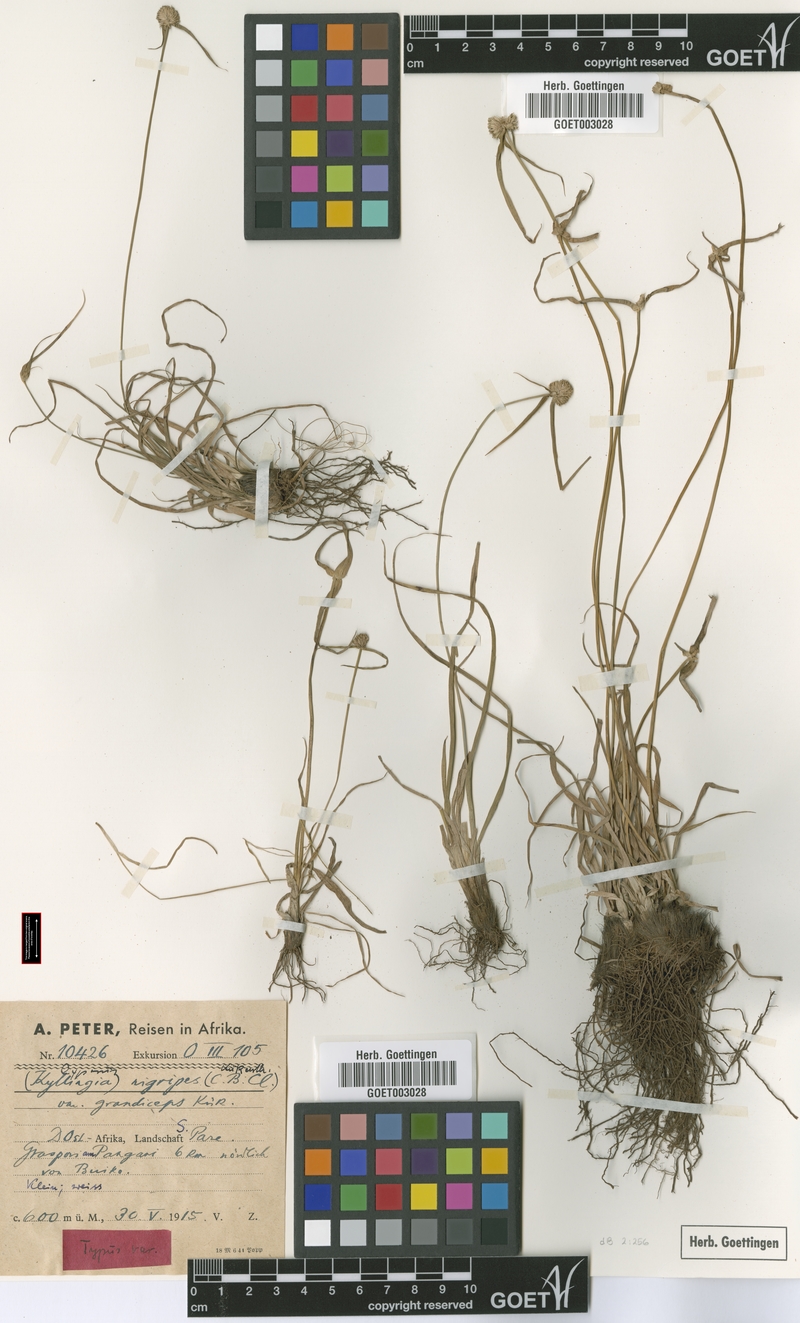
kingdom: Plantae
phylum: Tracheophyta
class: Liliopsida
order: Poales
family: Cyperaceae
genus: Cyperus
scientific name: Cyperus alatus
